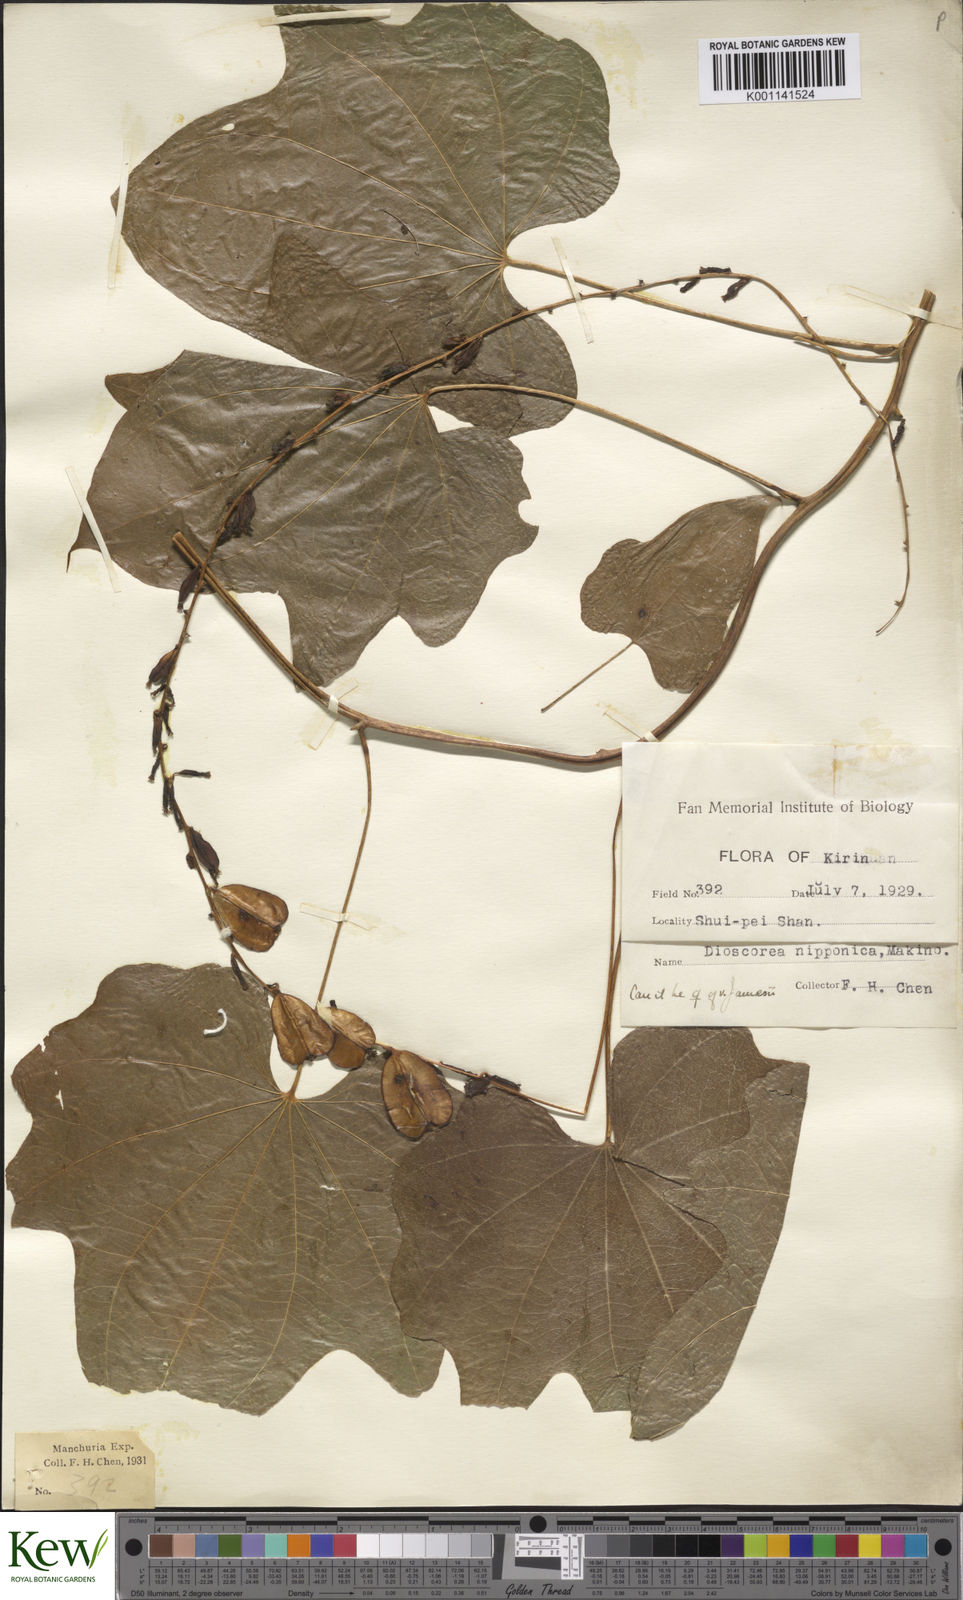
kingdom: Plantae
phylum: Tracheophyta
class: Liliopsida
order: Dioscoreales
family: Dioscoreaceae
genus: Dioscorea
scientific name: Dioscorea nipponica
